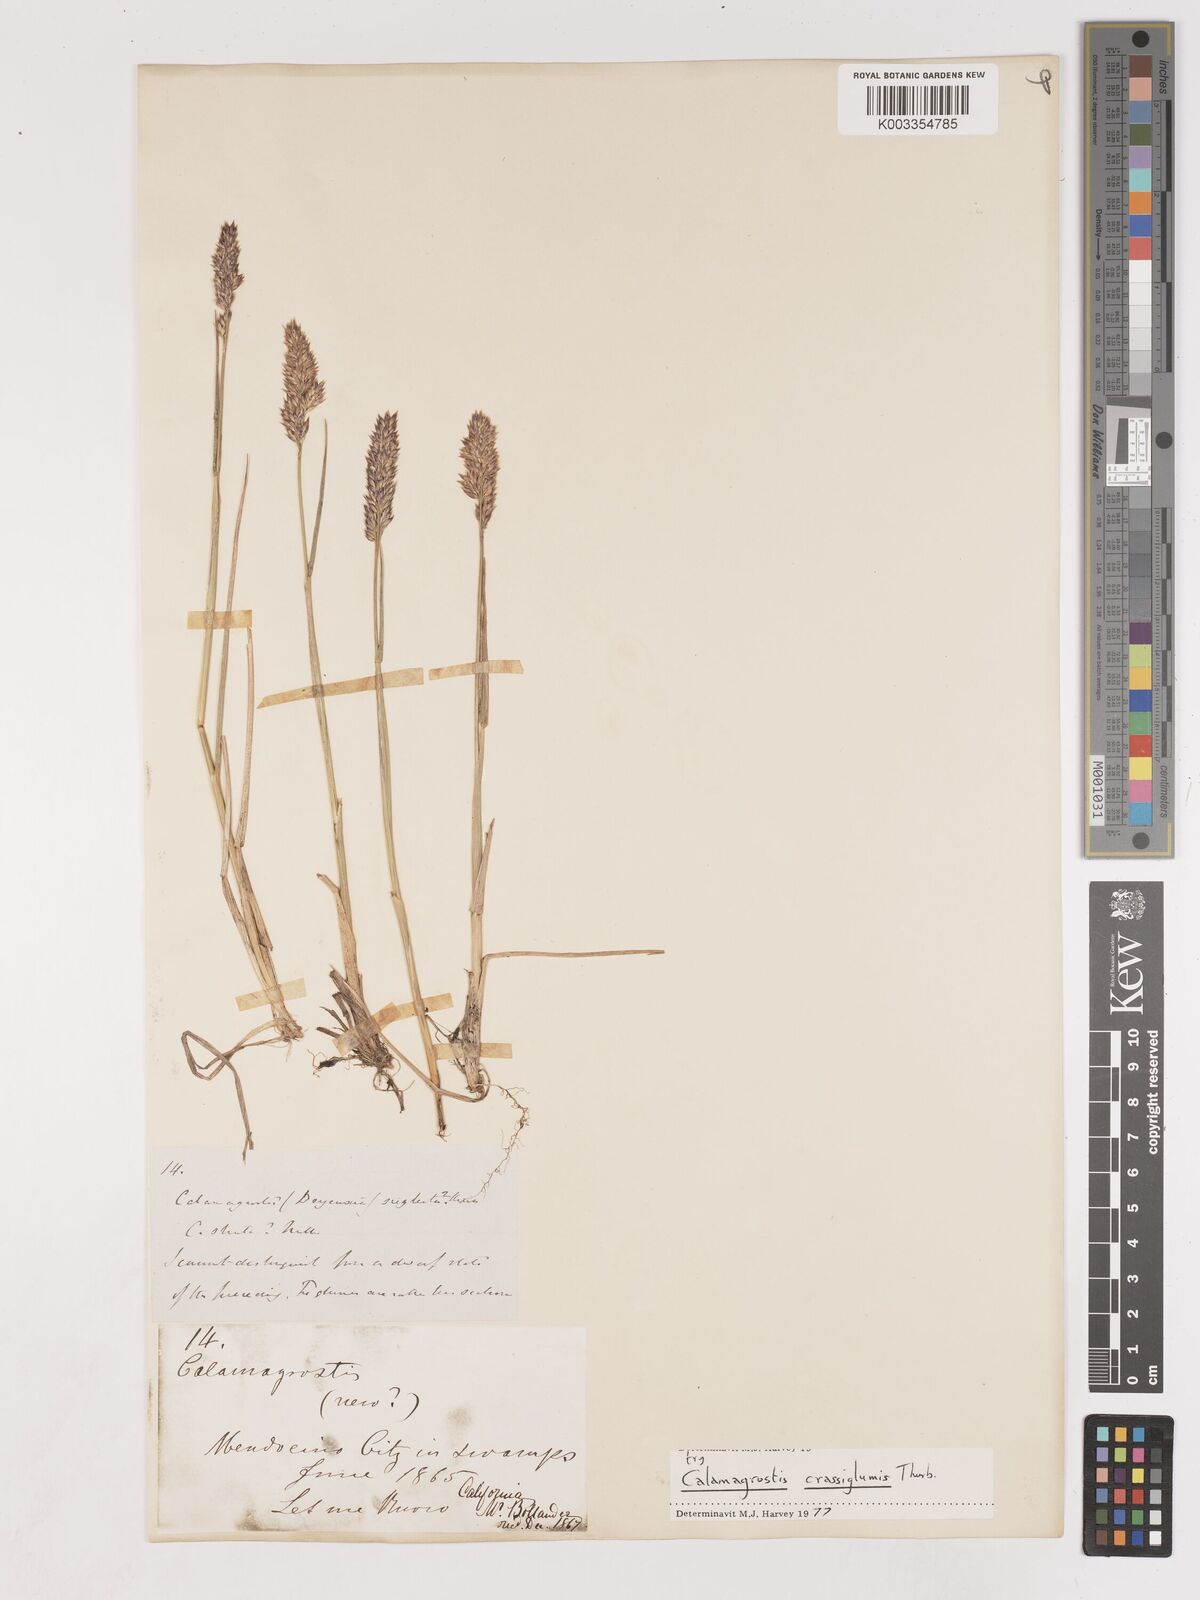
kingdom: Plantae
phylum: Tracheophyta
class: Liliopsida
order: Poales
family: Poaceae
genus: Cinnagrostis
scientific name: Cinnagrostis recta
